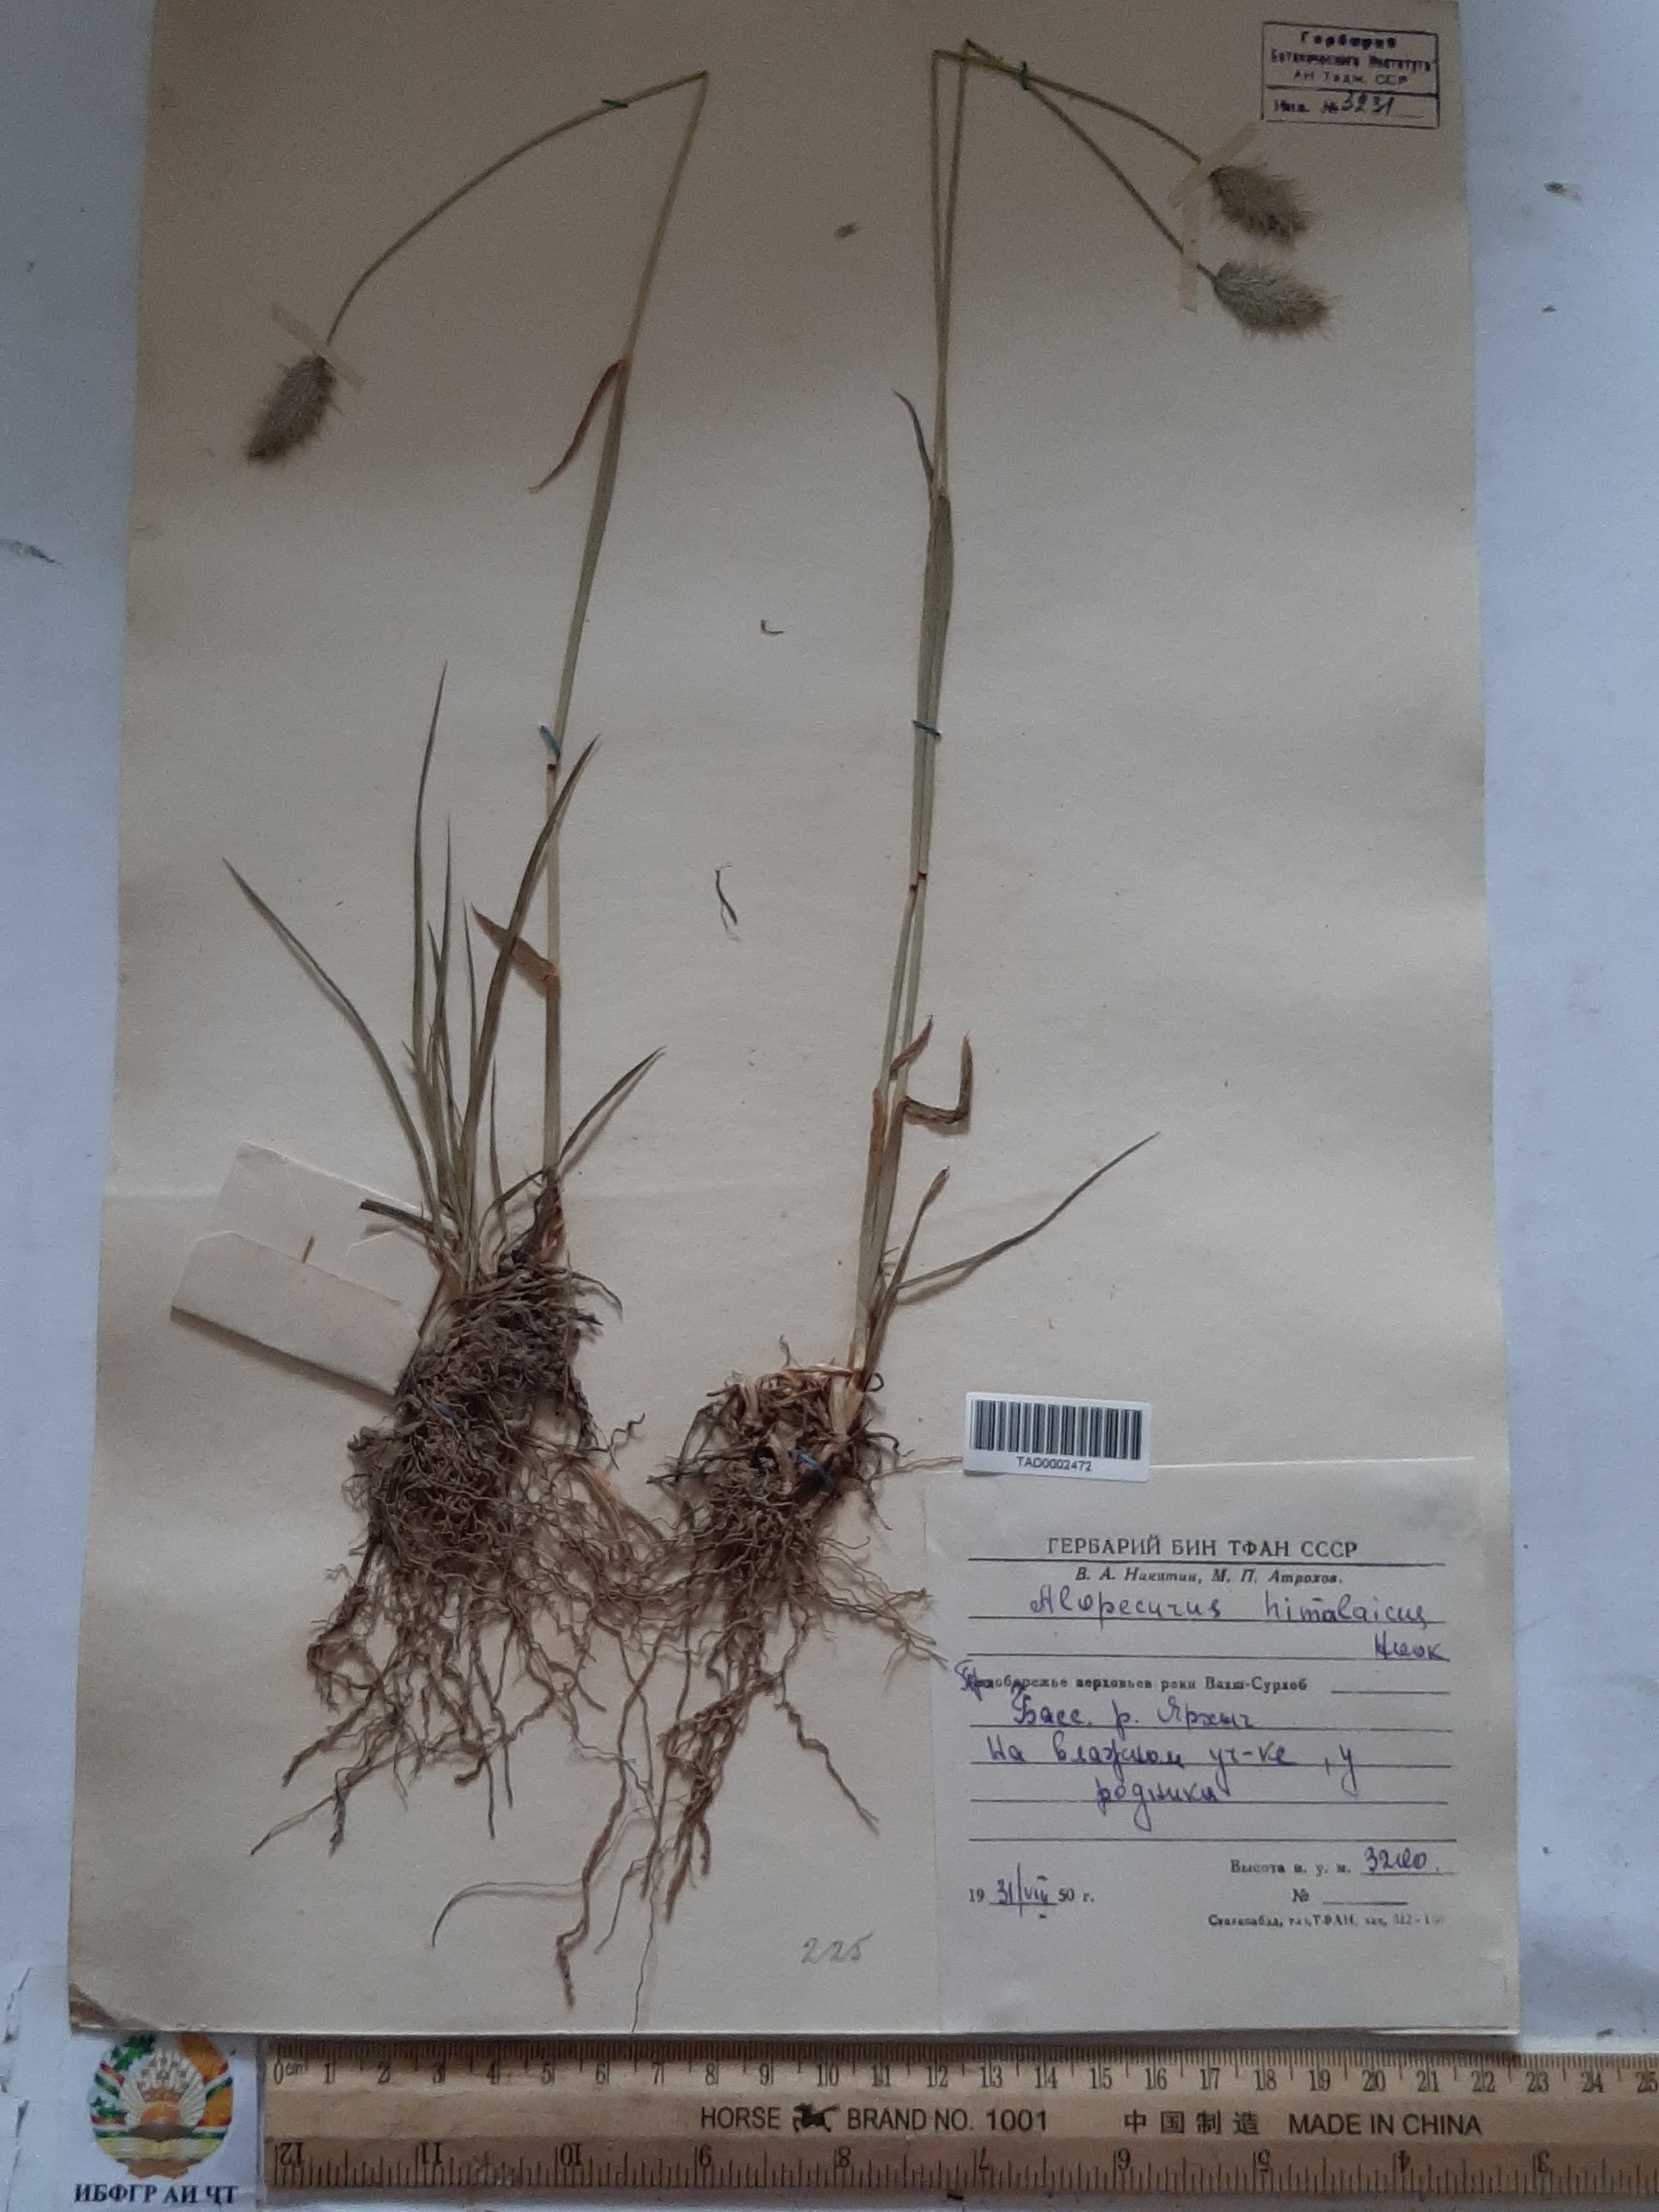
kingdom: Plantae
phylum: Tracheophyta
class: Liliopsida
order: Poales
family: Poaceae
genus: Alopecurus
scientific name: Alopecurus himalaicus
